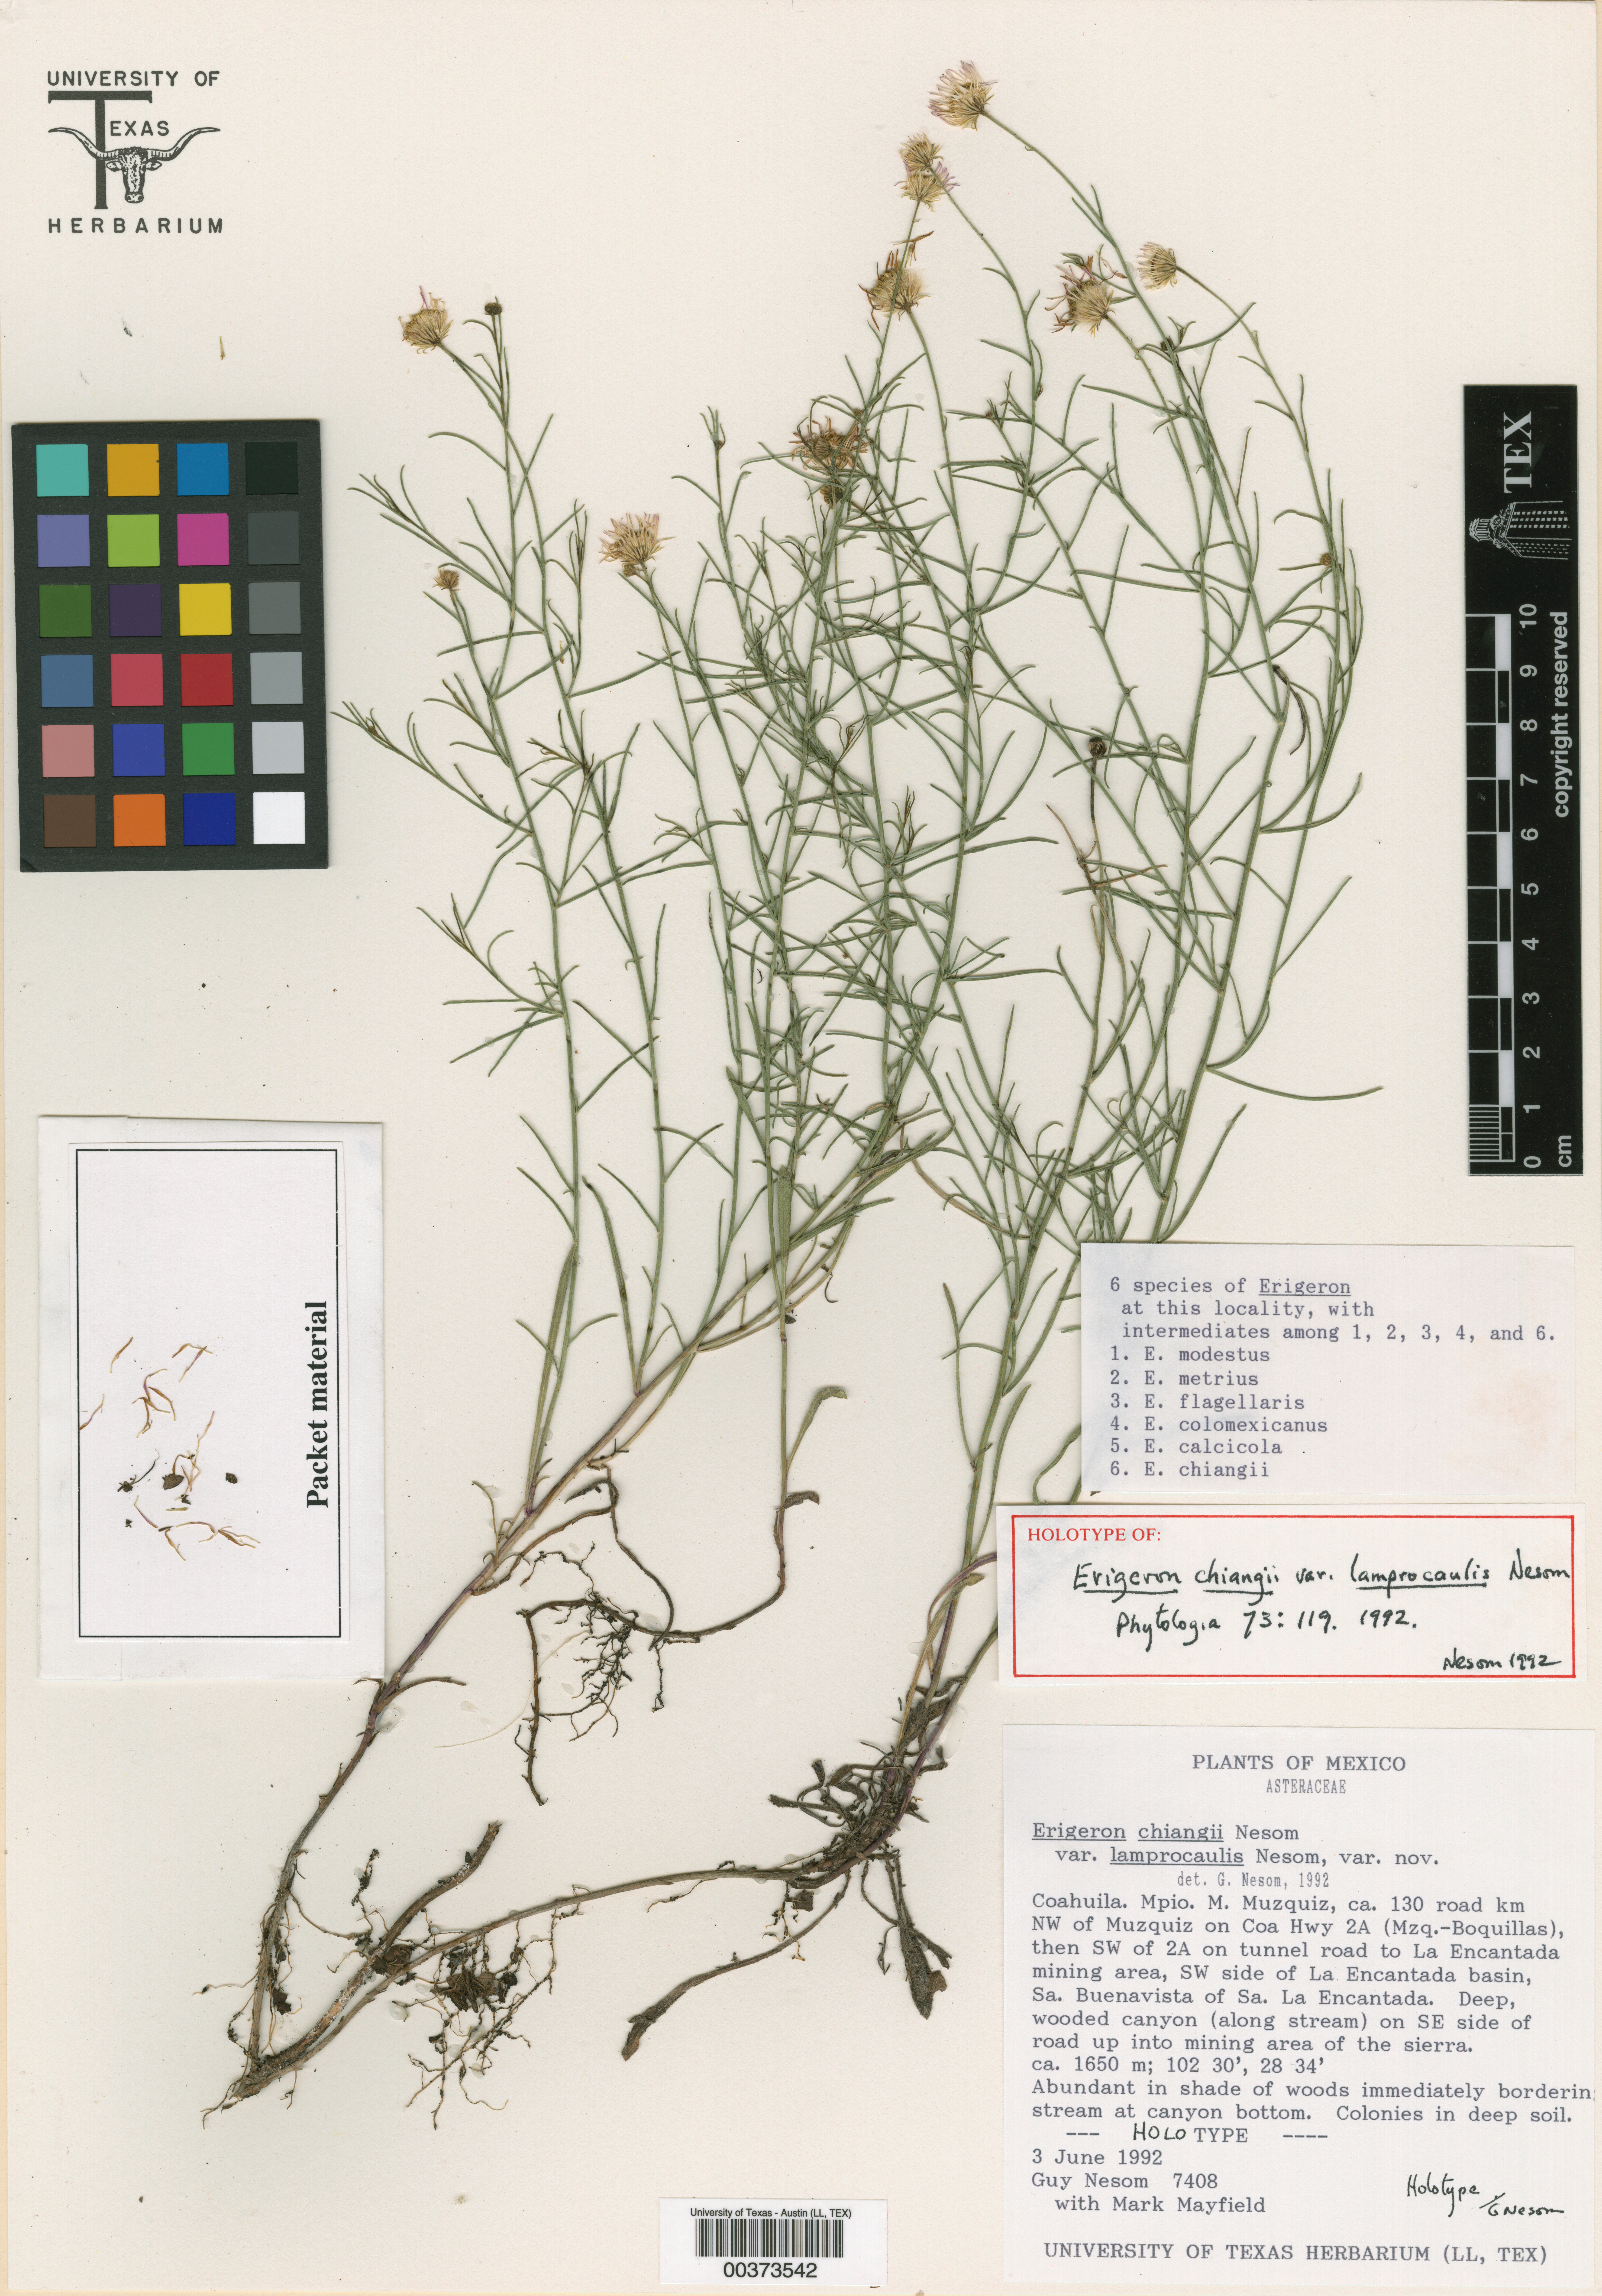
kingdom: Plantae
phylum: Tracheophyta
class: Magnoliopsida
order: Asterales
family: Asteraceae
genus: Erigeron
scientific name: Erigeron chiangii
